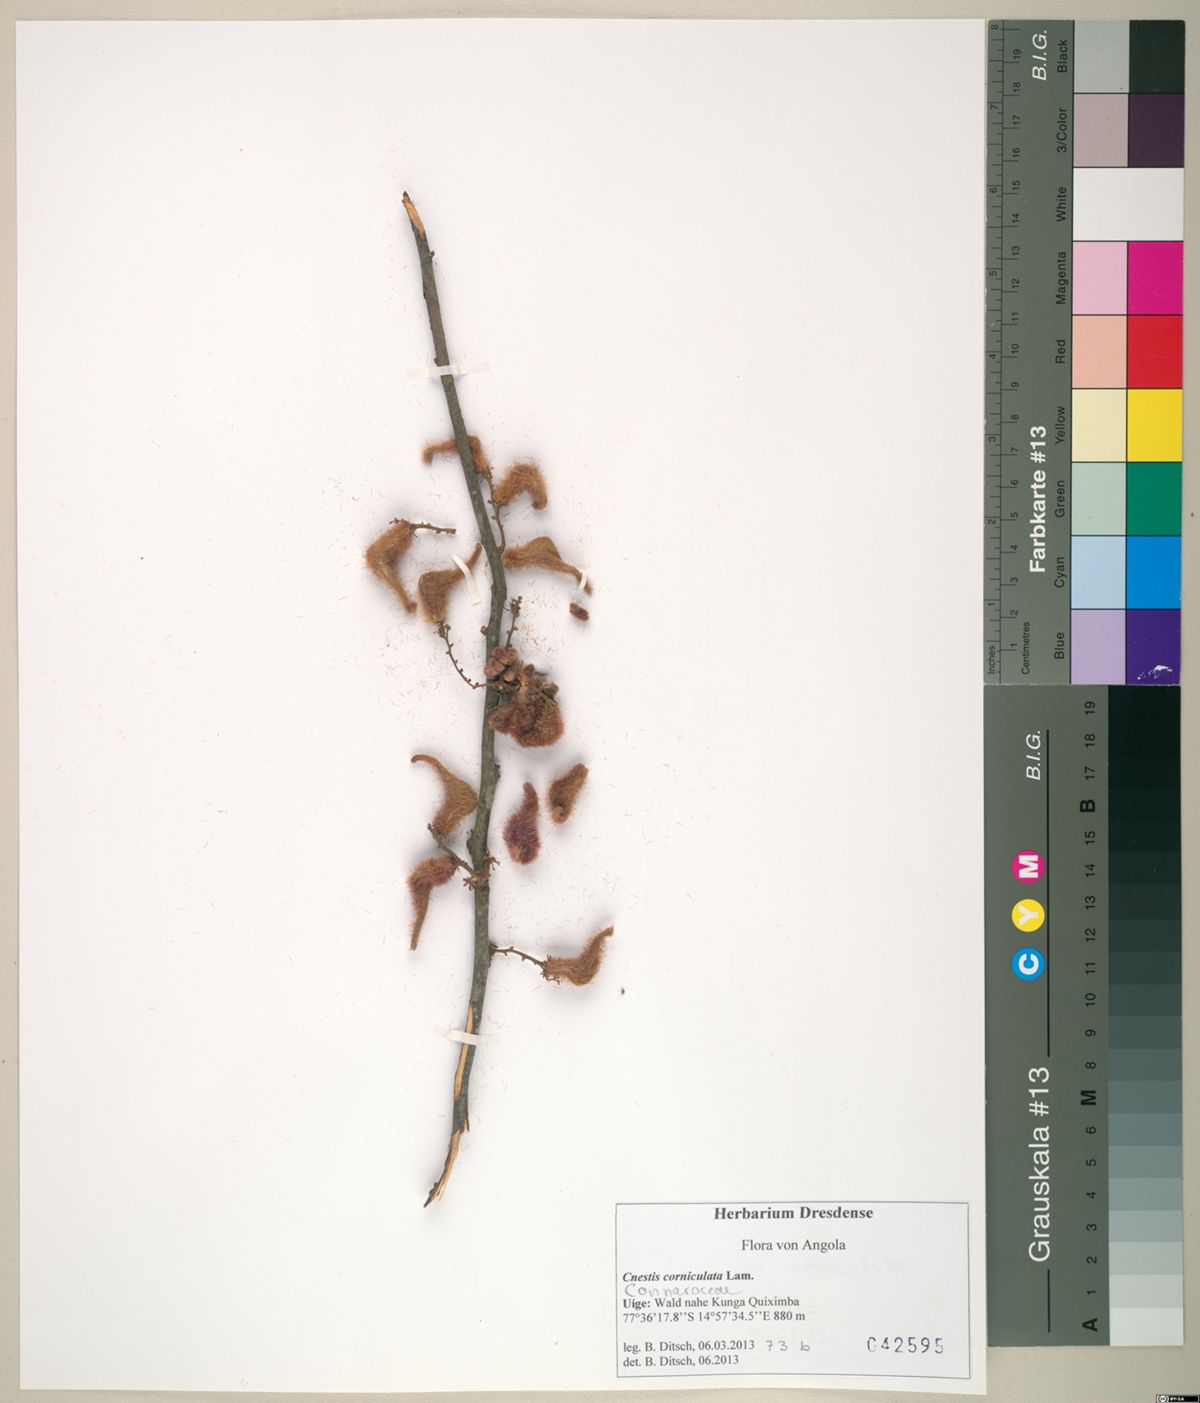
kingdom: Plantae
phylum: Tracheophyta
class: Magnoliopsida
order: Oxalidales
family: Connaraceae
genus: Cnestis
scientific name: Cnestis corniculata
